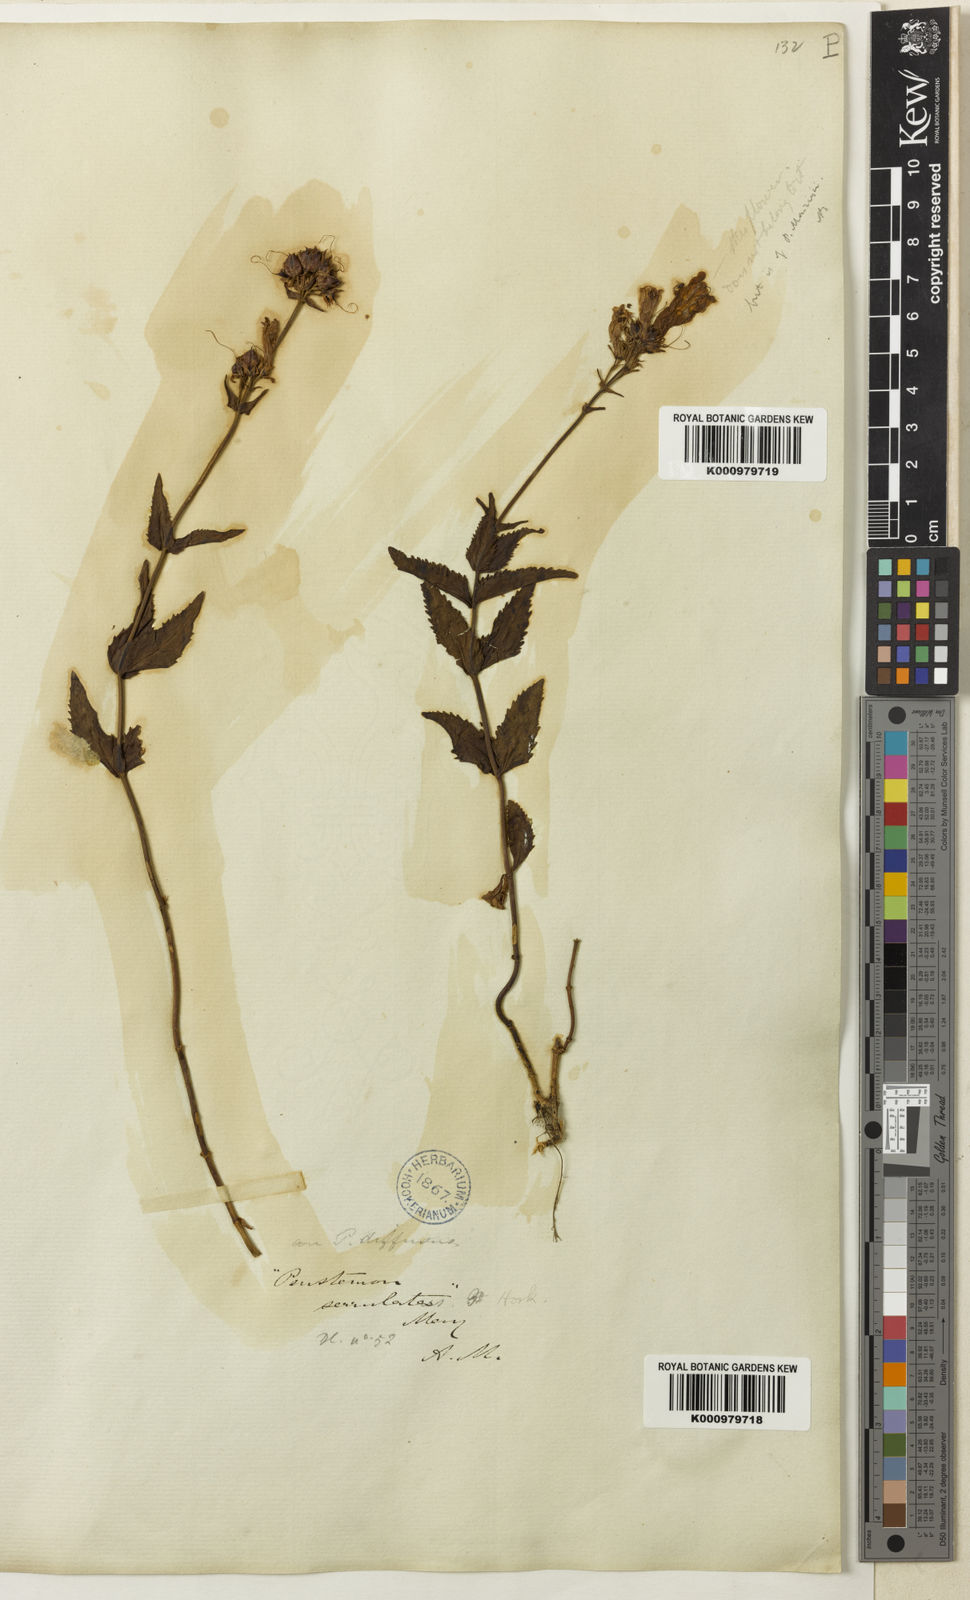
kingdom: Plantae
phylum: Tracheophyta
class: Magnoliopsida
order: Lamiales
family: Plantaginaceae
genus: Penstemon
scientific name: Penstemon serrulatus
